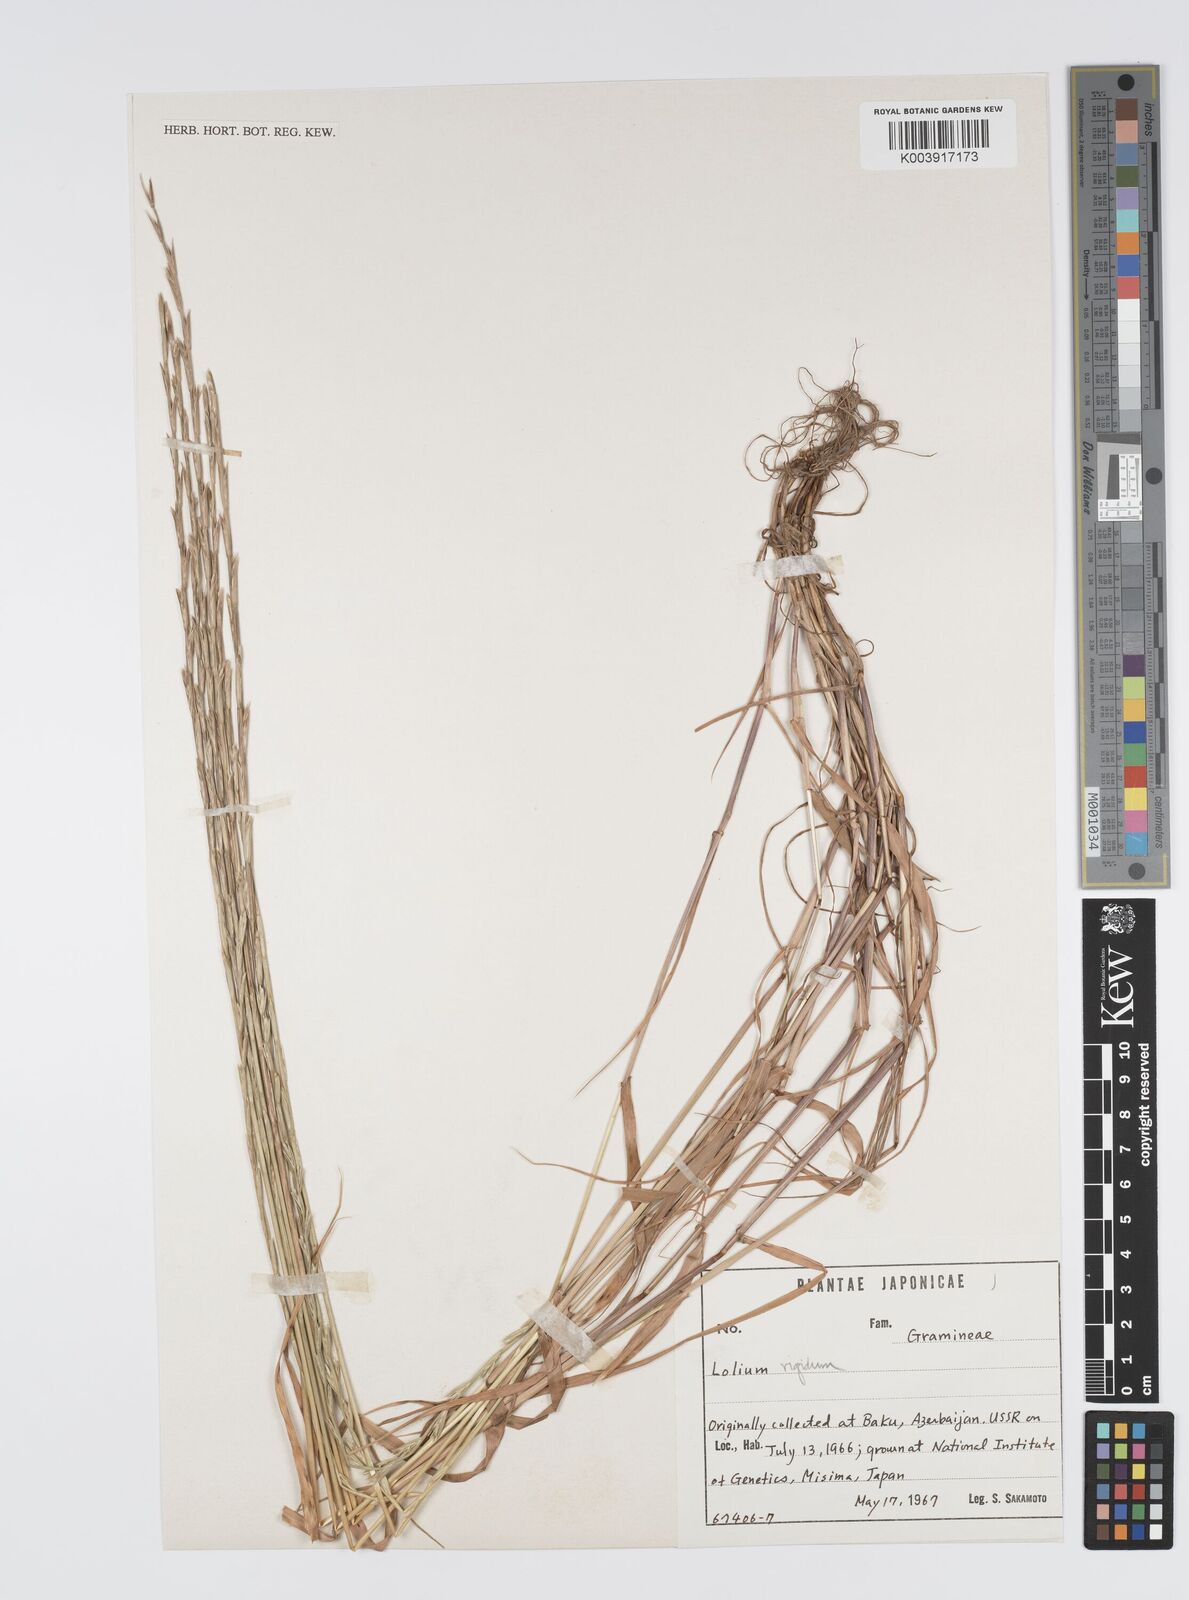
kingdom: Plantae
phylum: Tracheophyta
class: Liliopsida
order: Poales
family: Poaceae
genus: Lolium
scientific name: Lolium rigidum
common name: Wimmera ryegrass
